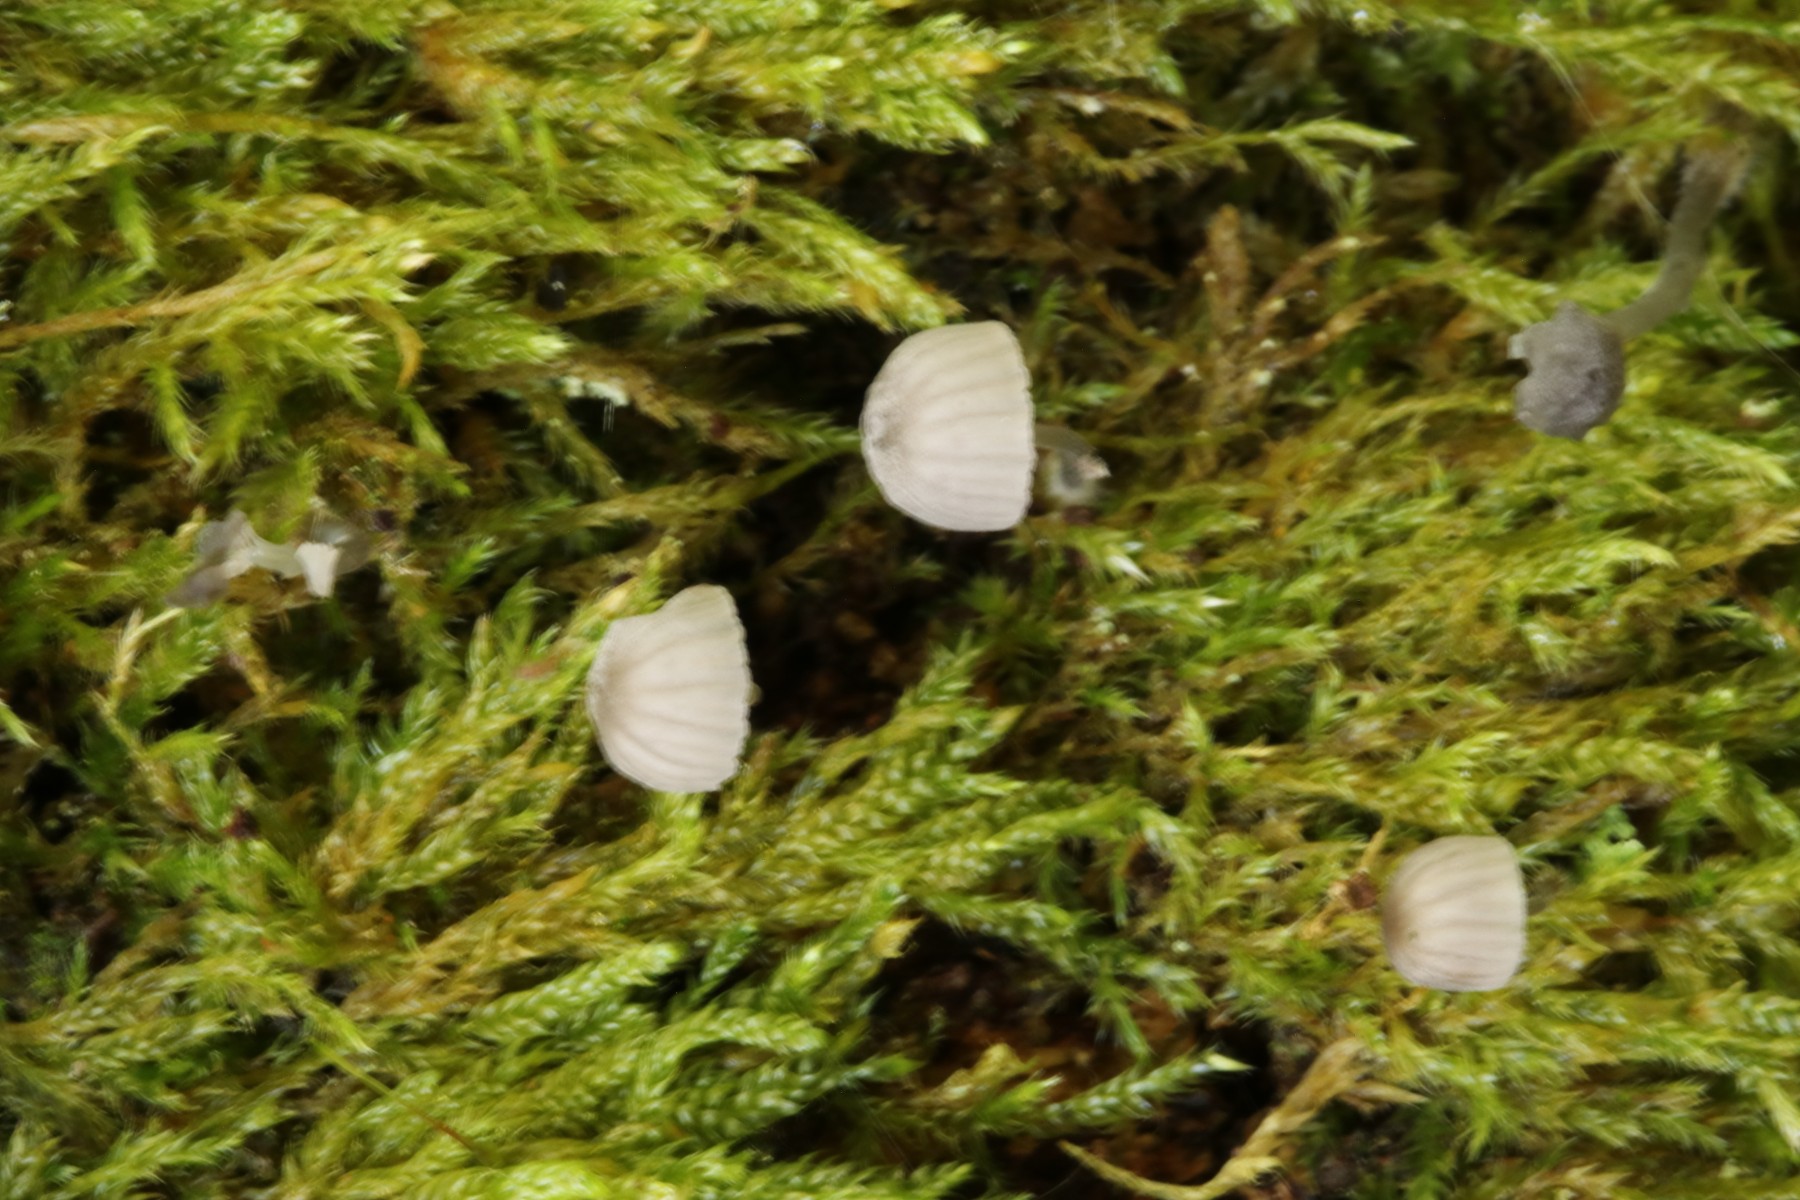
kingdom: Fungi
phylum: Basidiomycota
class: Agaricomycetes
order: Agaricales
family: Mycenaceae
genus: Mycena
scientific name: Mycena pseudocorticola
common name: gråblå bark-huesvamp
